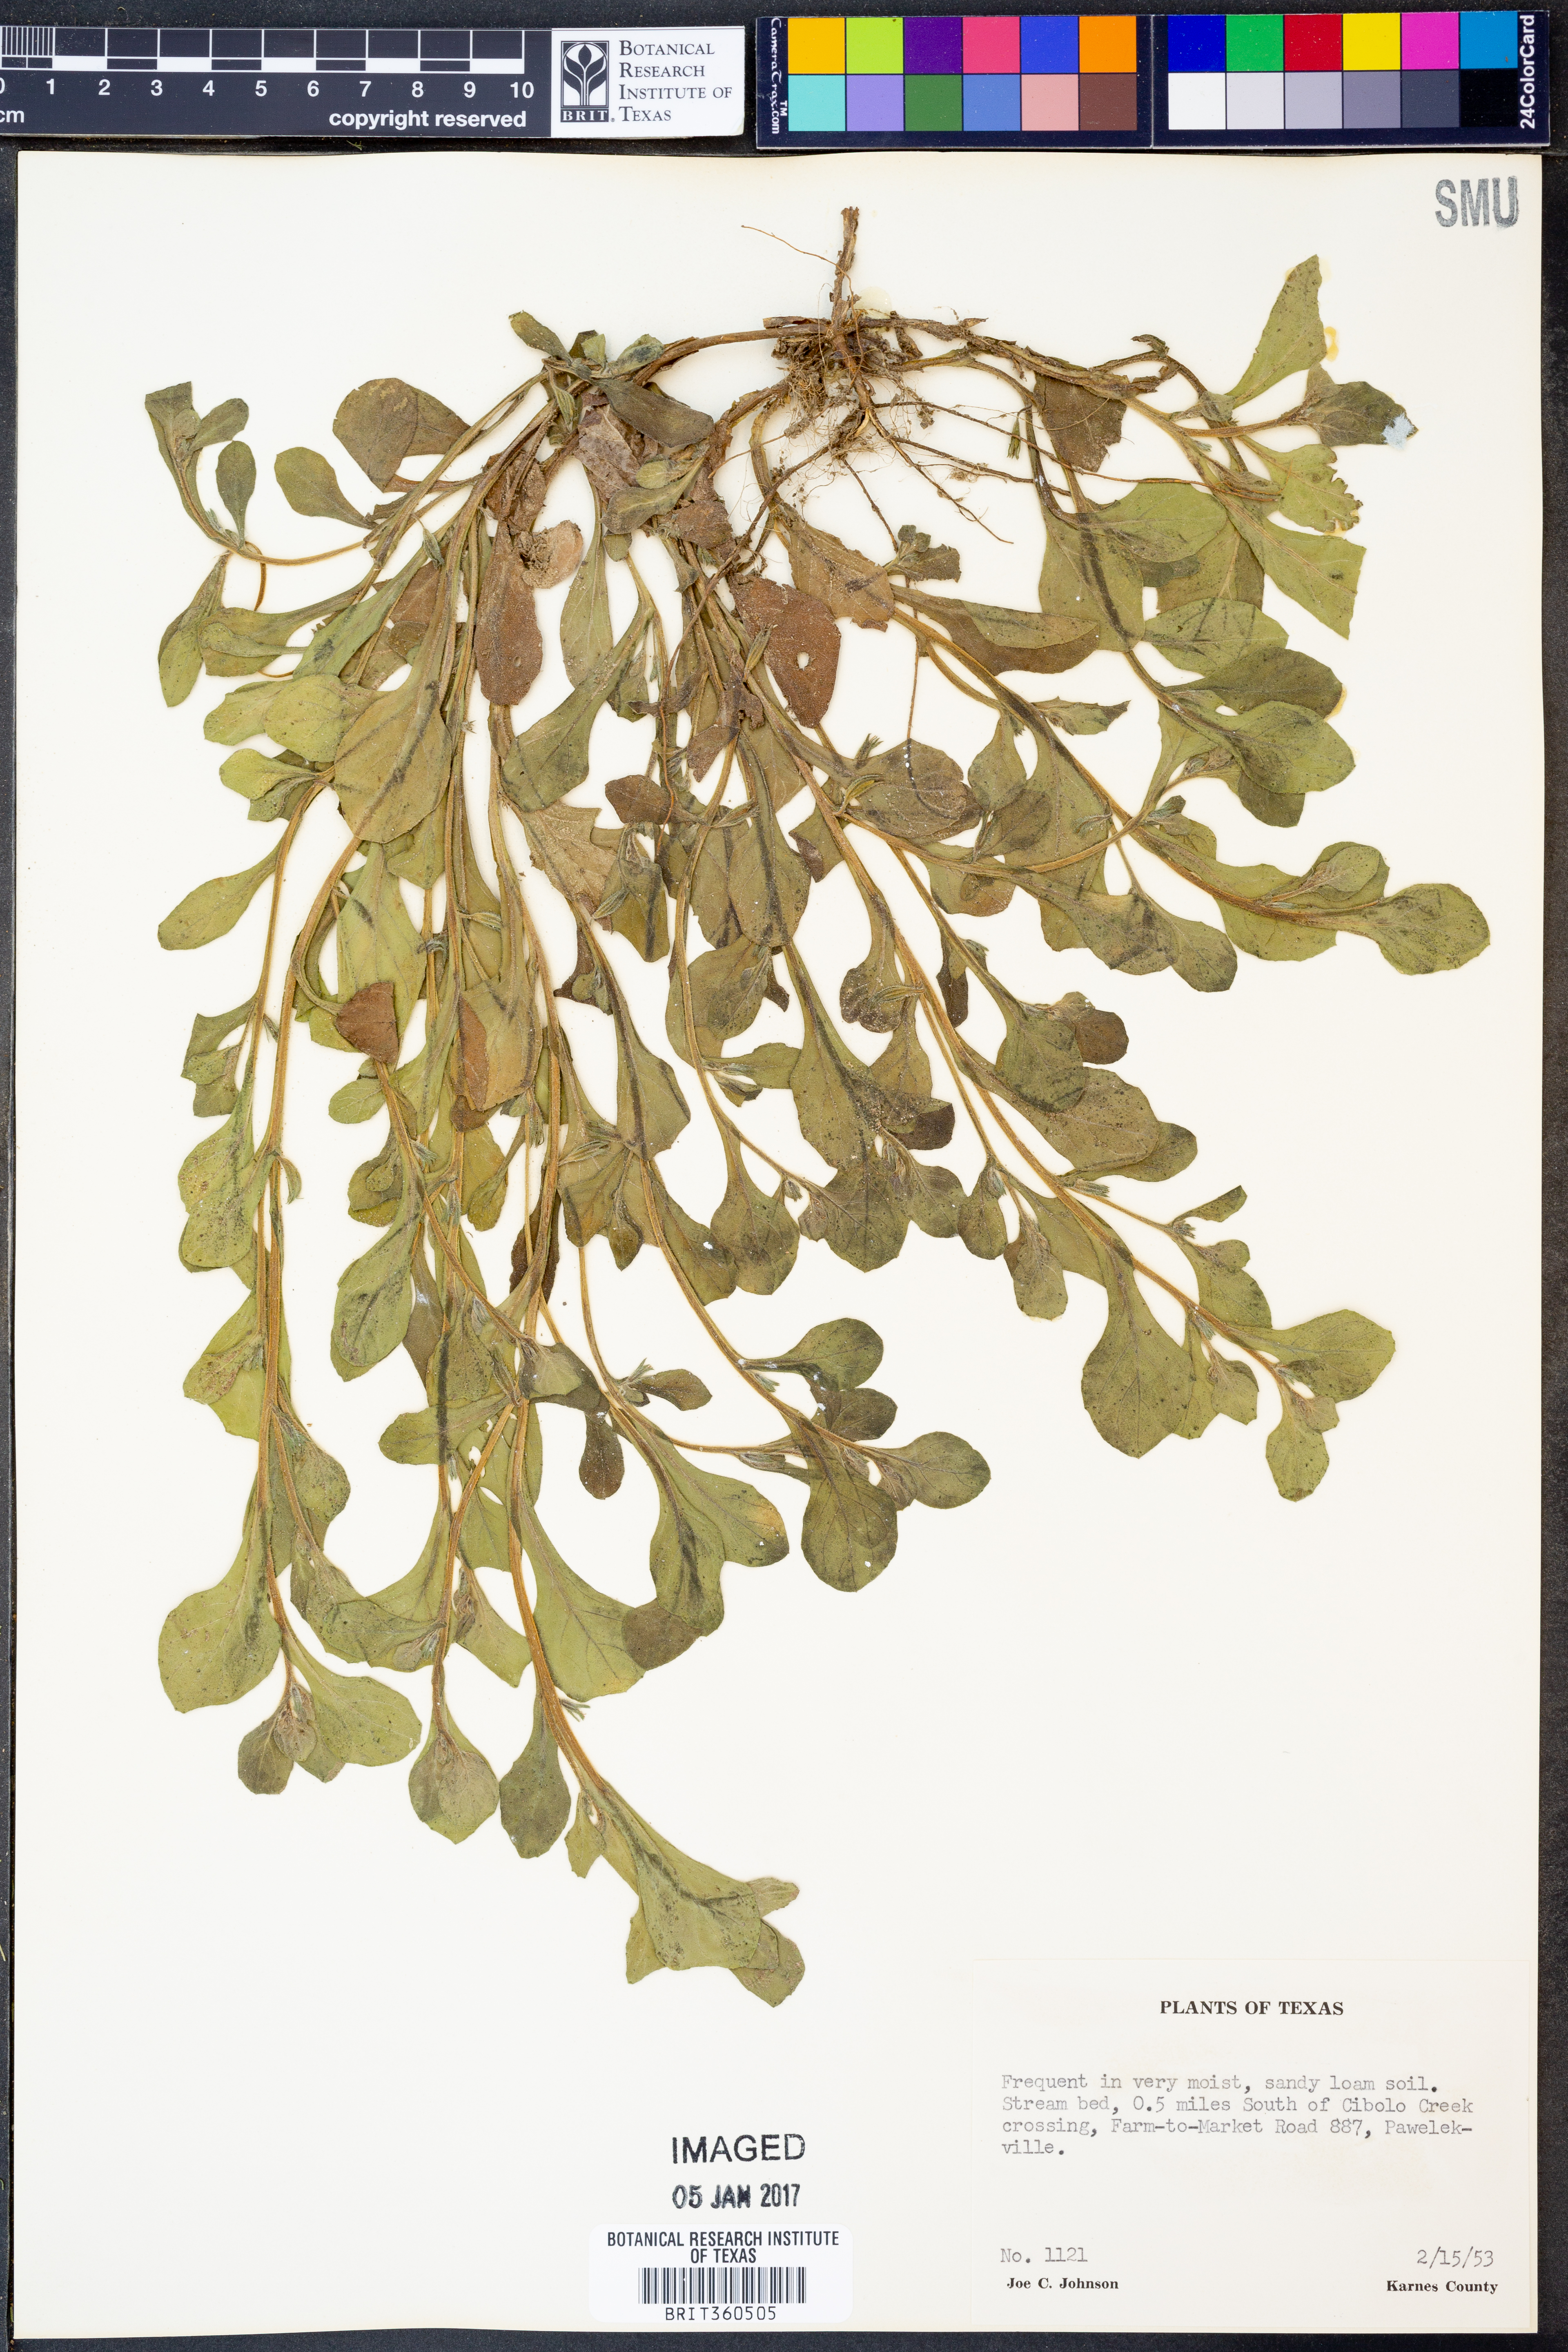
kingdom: Plantae
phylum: Tracheophyta
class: Magnoliopsida
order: Boraginales
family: Namaceae
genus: Nama
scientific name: Nama jamaicense
